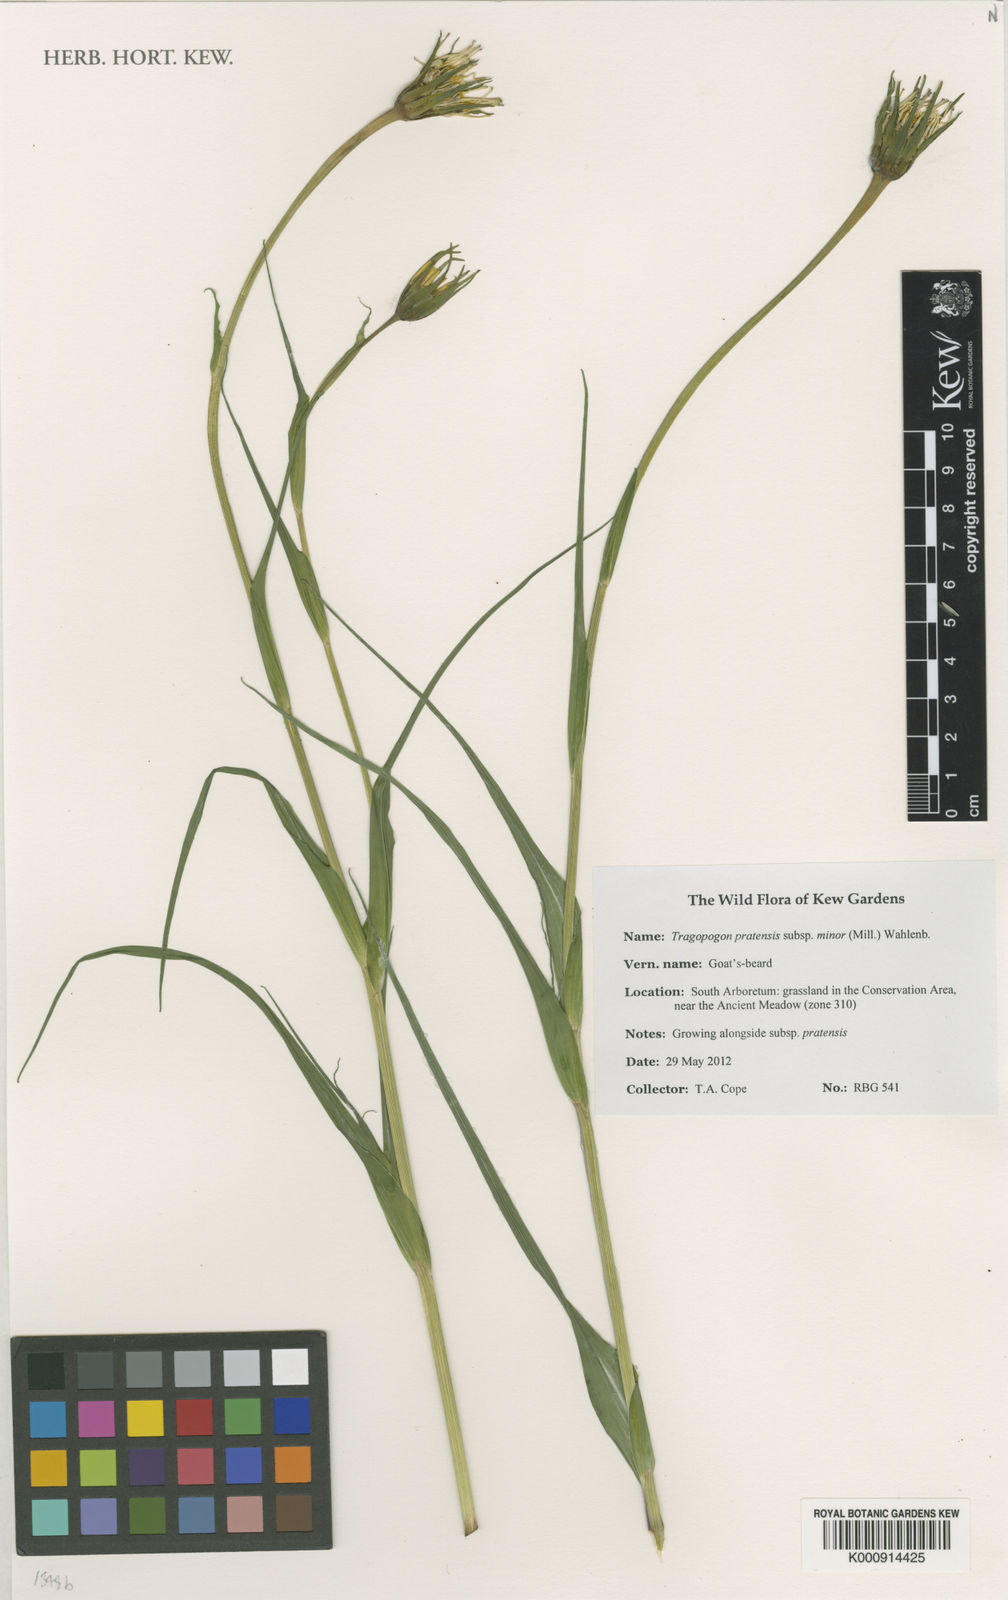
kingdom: Plantae
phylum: Tracheophyta
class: Magnoliopsida
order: Asterales
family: Asteraceae
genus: Tragopogon
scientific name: Tragopogon
